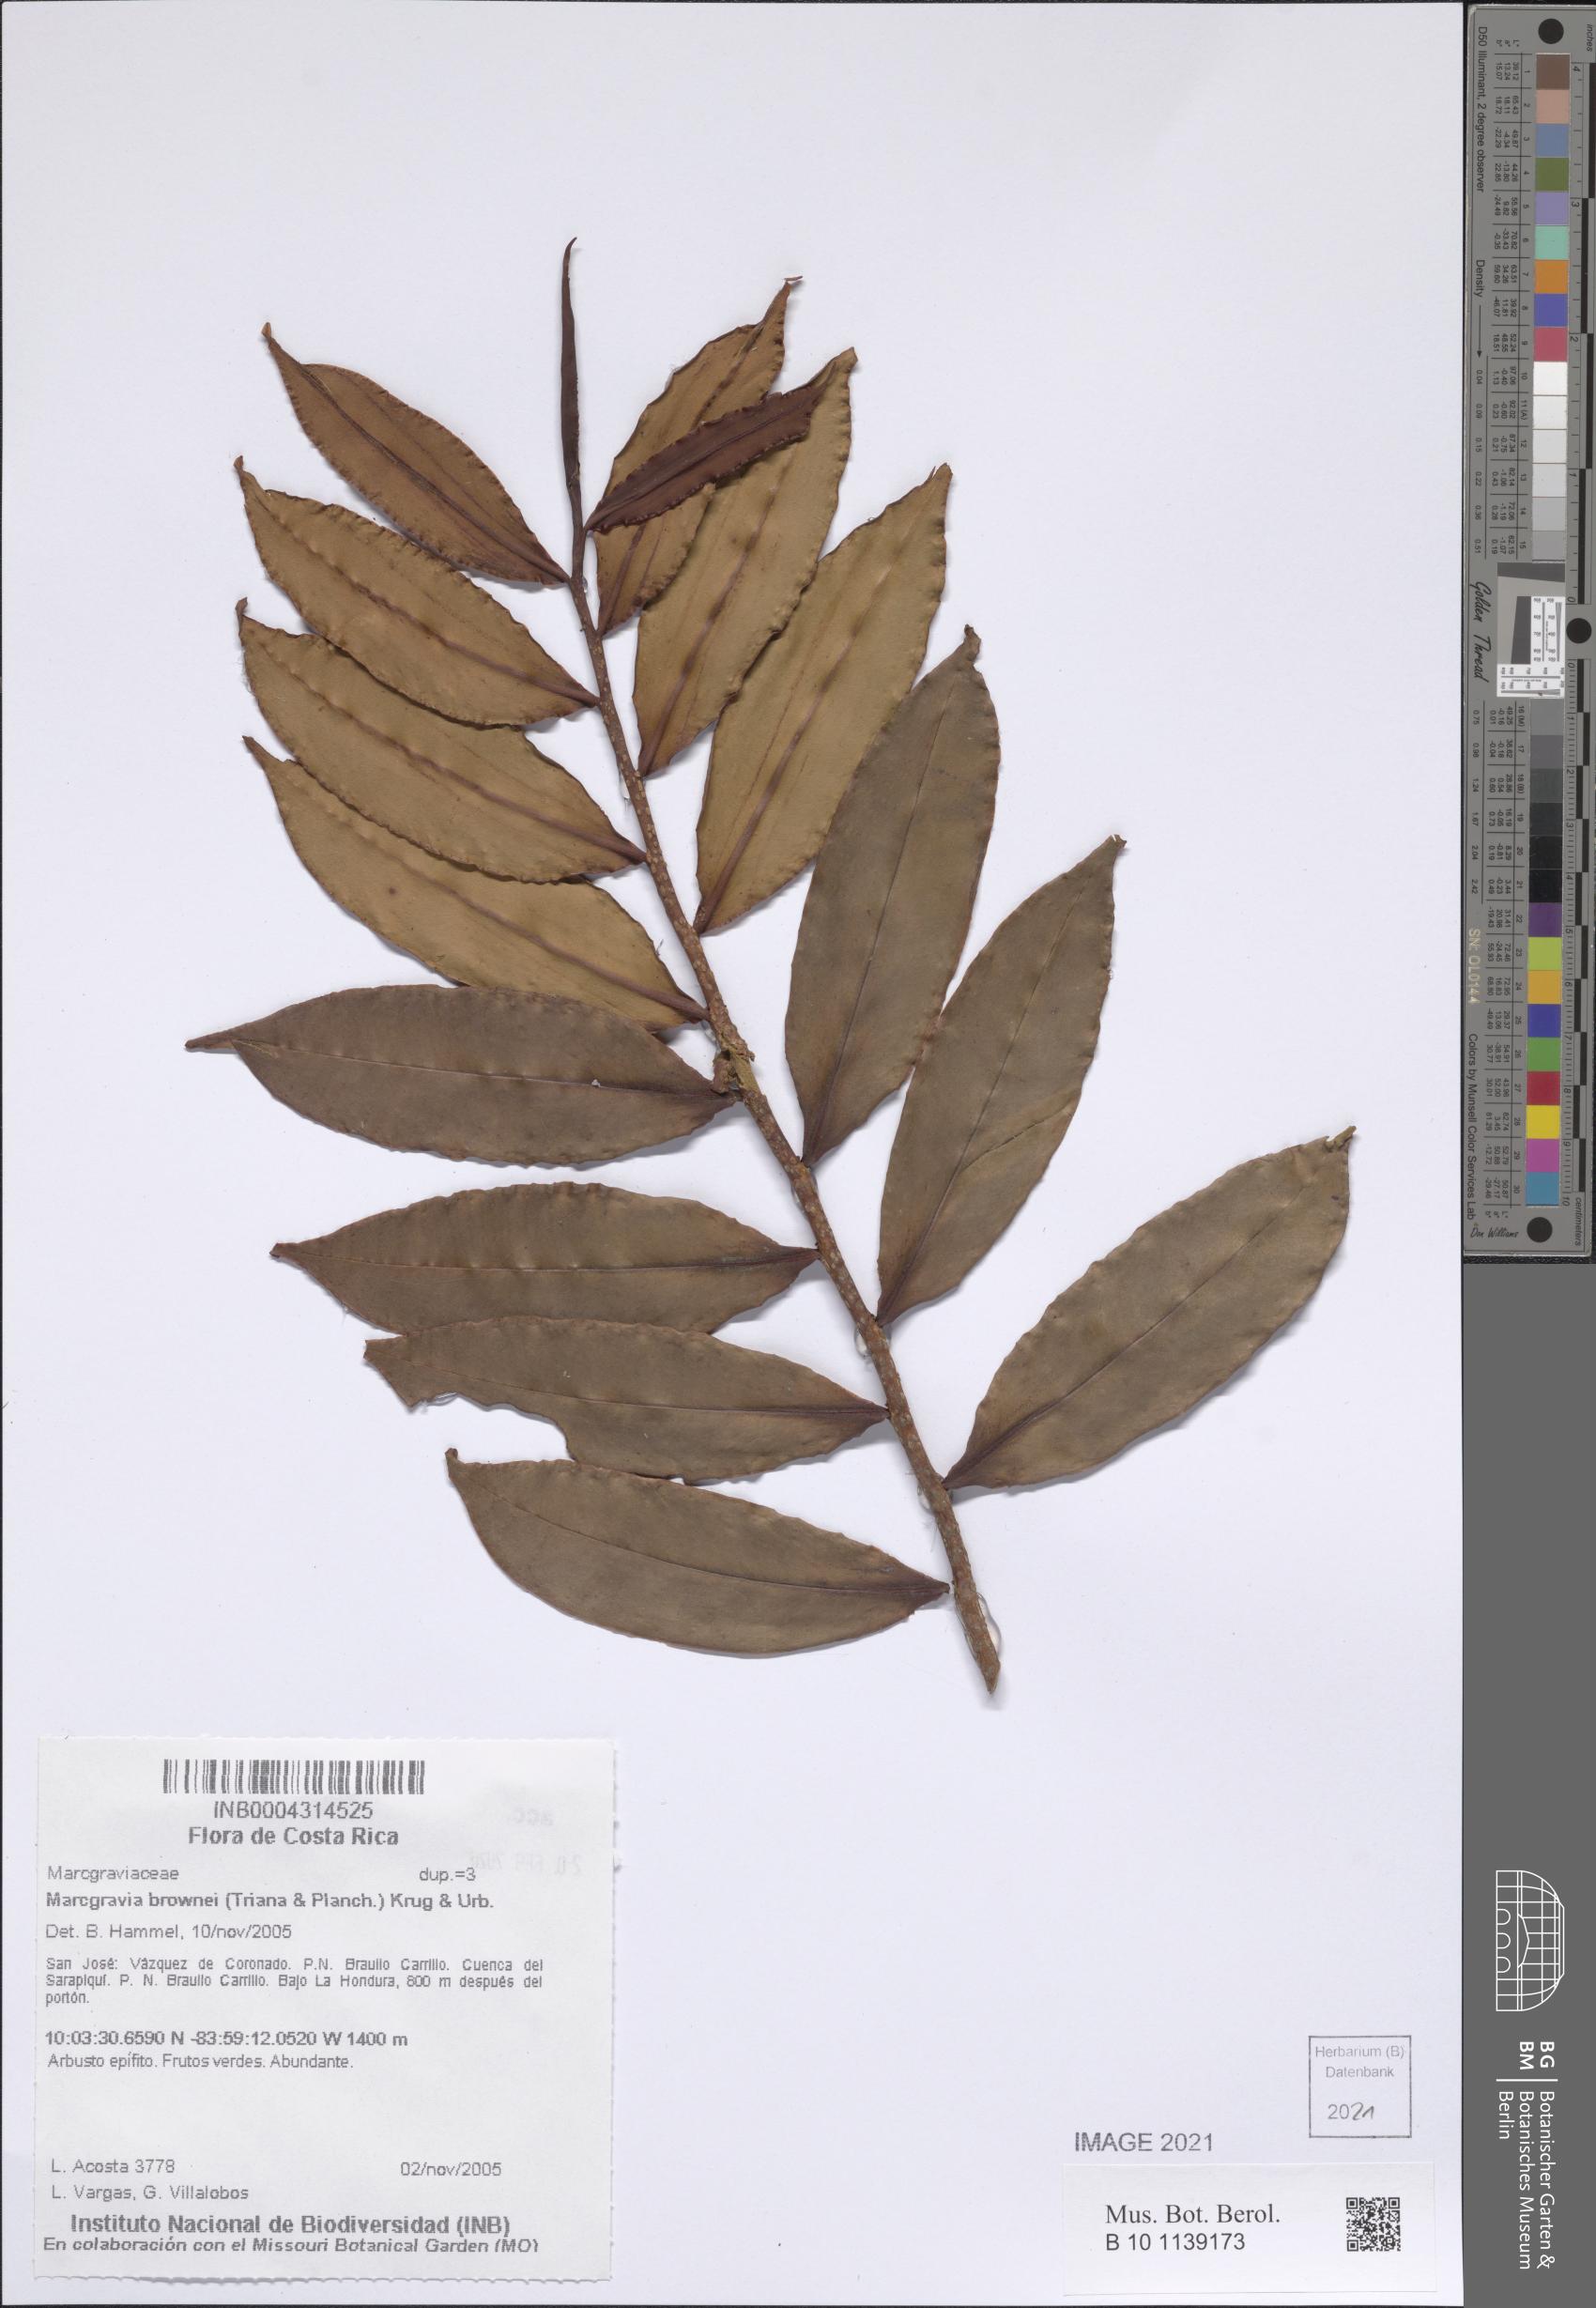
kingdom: Plantae
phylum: Tracheophyta
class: Magnoliopsida
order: Ericales
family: Marcgraviaceae
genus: Marcgravia
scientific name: Marcgravia brownei
